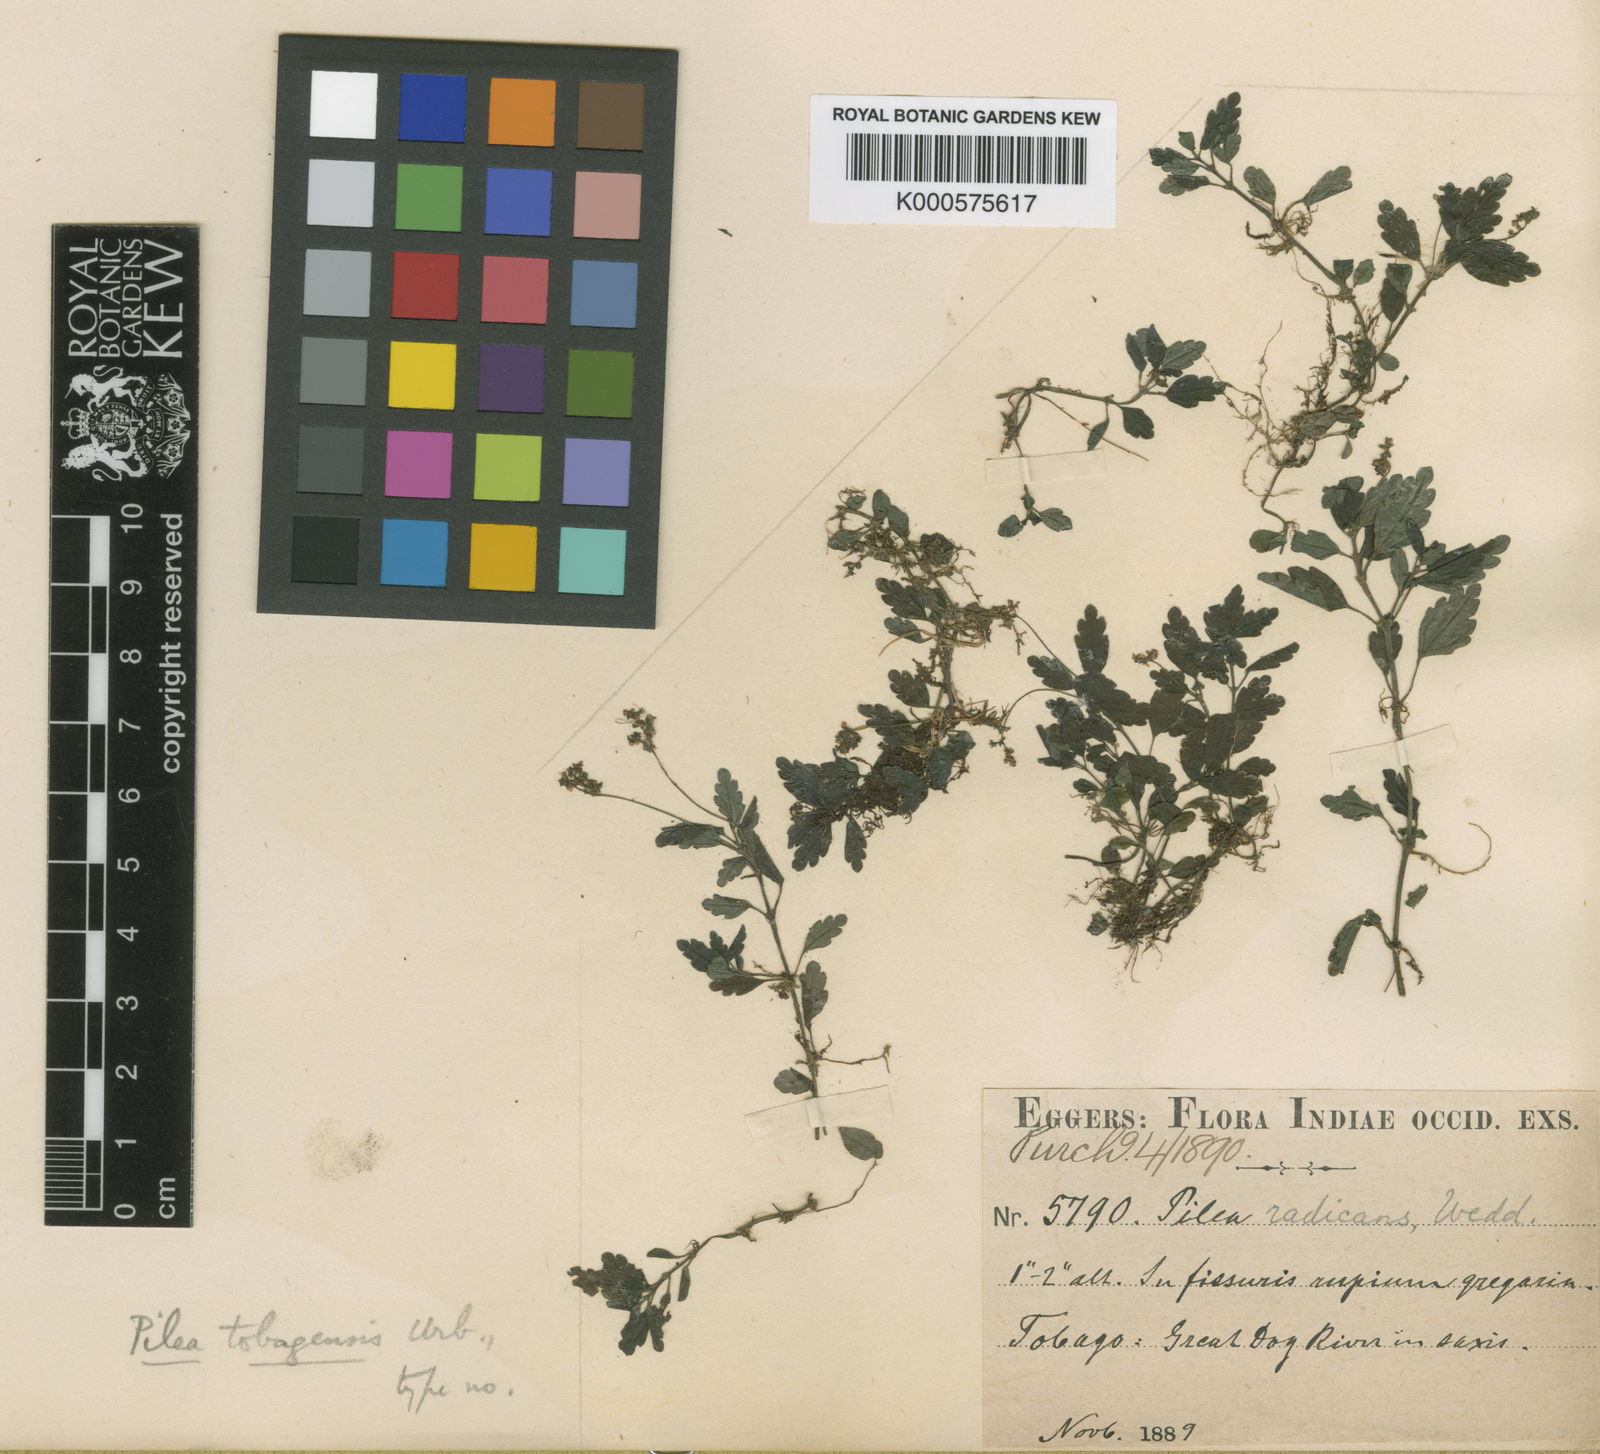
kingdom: Plantae
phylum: Tracheophyta
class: Magnoliopsida
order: Rosales
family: Urticaceae
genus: Pilea
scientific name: Pilea tobagensis
